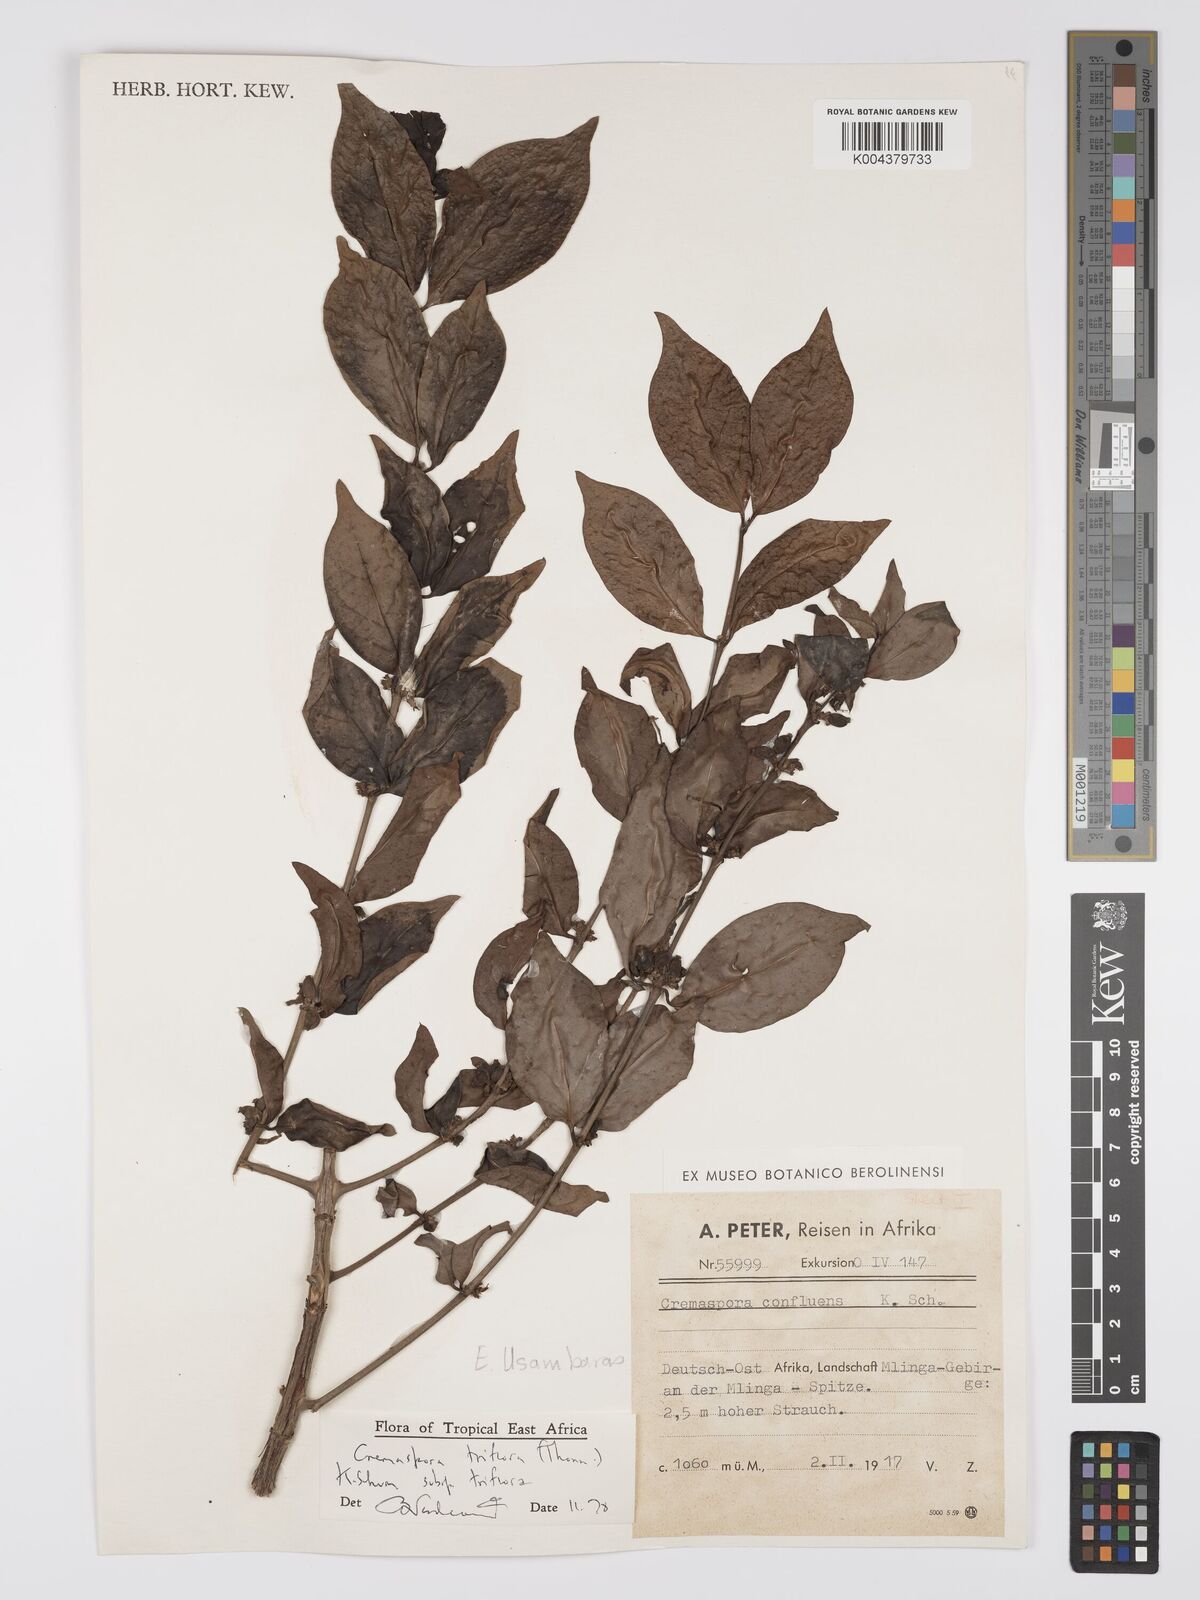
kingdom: Plantae
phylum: Tracheophyta
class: Magnoliopsida
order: Gentianales
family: Rubiaceae
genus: Cremaspora
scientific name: Cremaspora triflora
